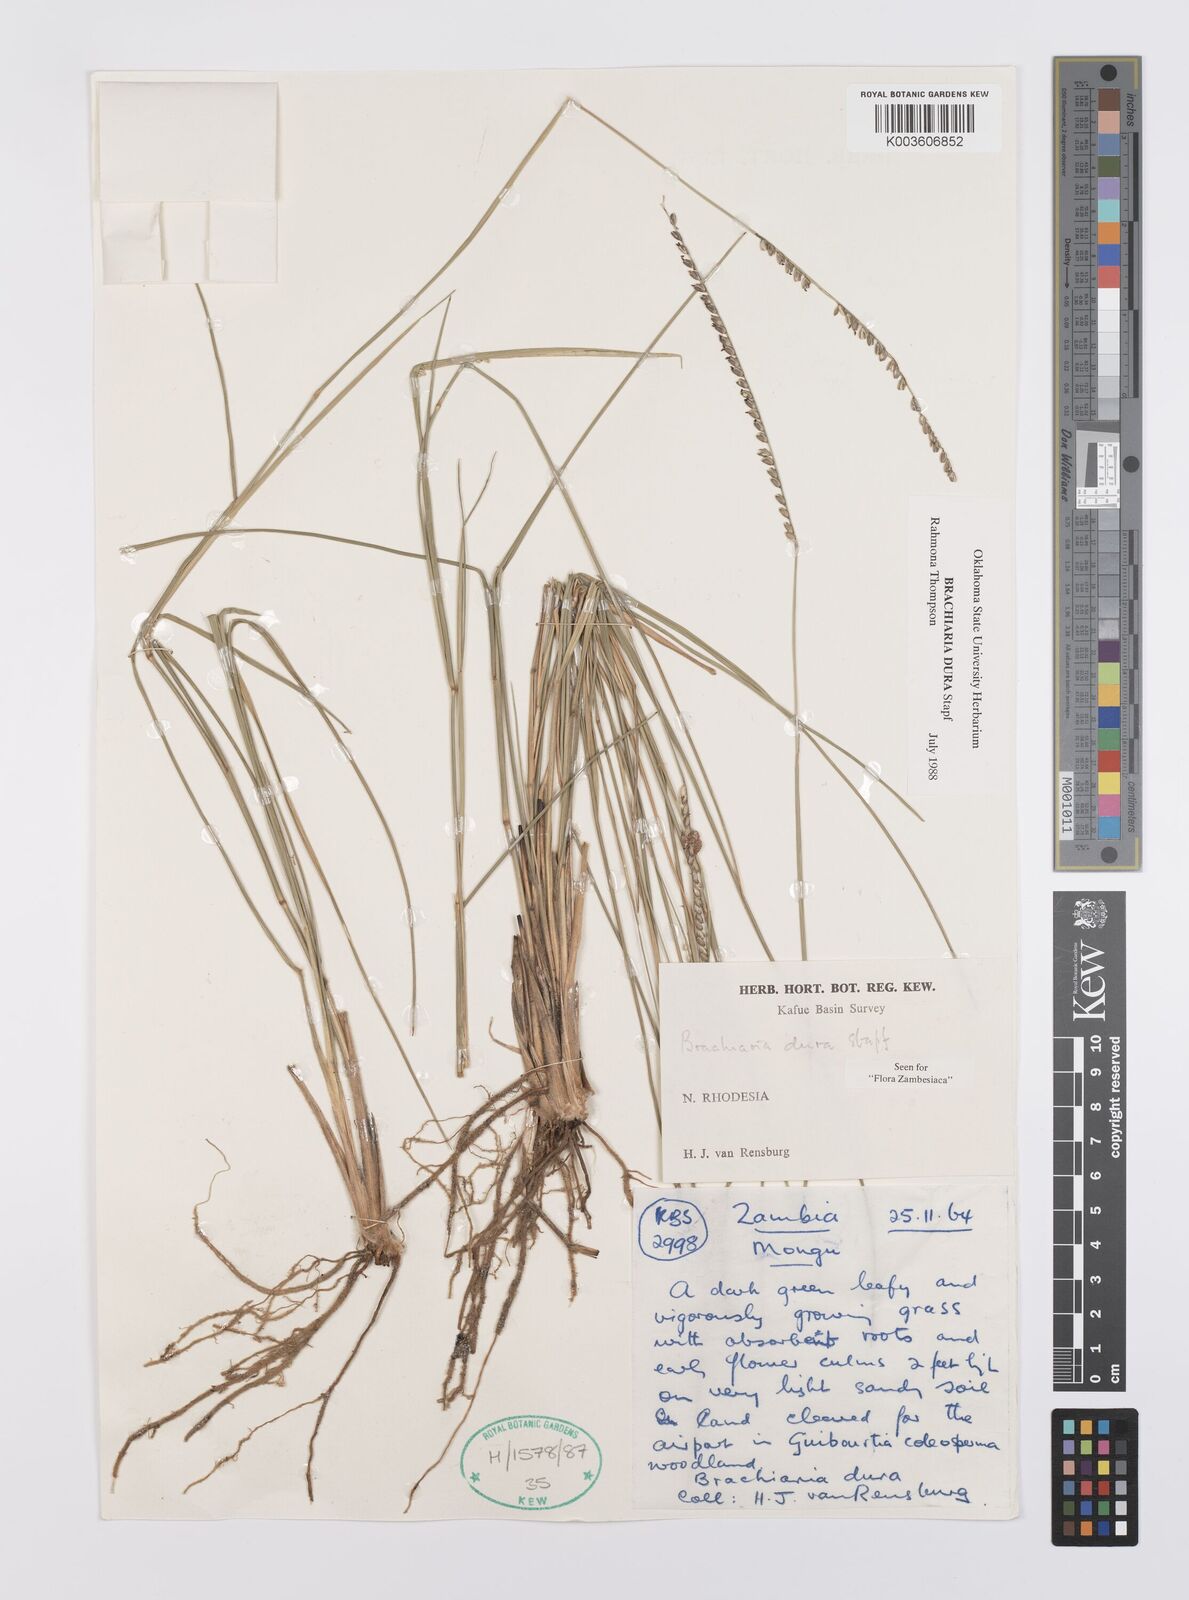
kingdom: Plantae
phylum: Tracheophyta
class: Liliopsida
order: Poales
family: Poaceae
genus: Urochloa
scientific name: Urochloa dura
